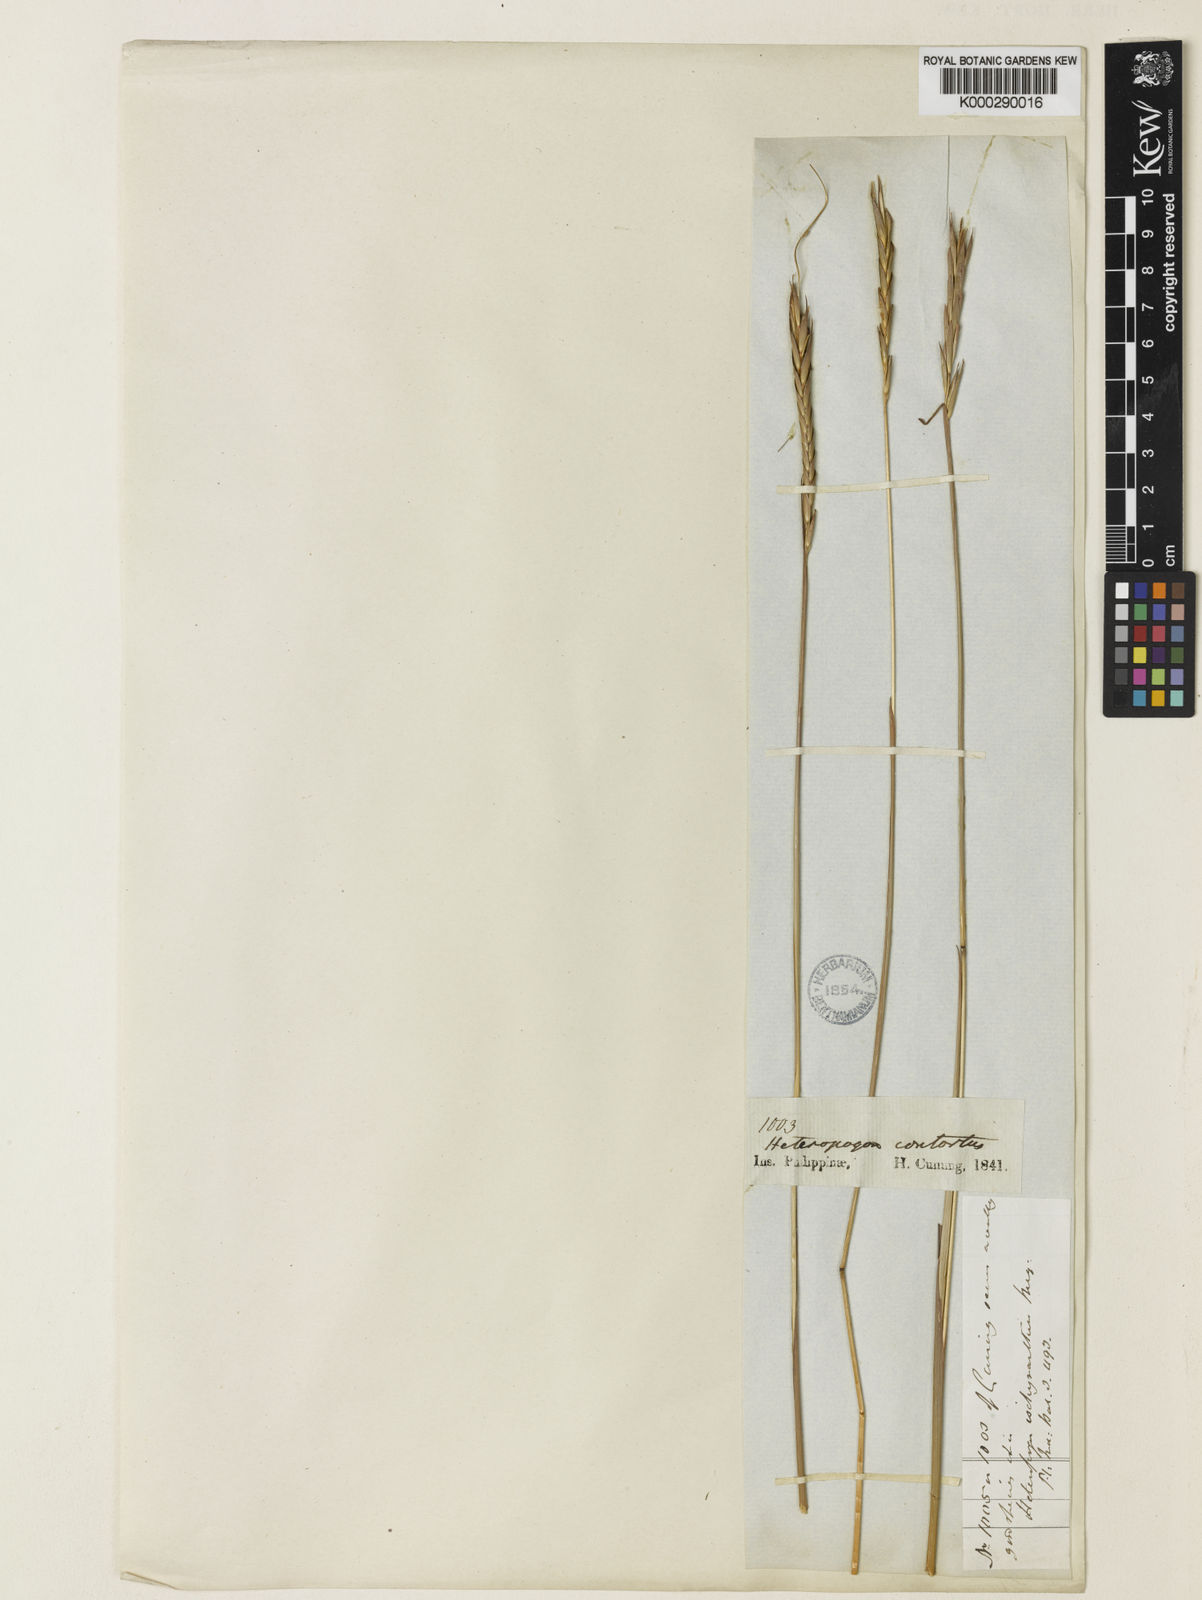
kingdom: Plantae
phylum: Tracheophyta
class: Liliopsida
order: Poales
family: Poaceae
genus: Heteropogon
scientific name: Heteropogon triticeus
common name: Sugar grass
